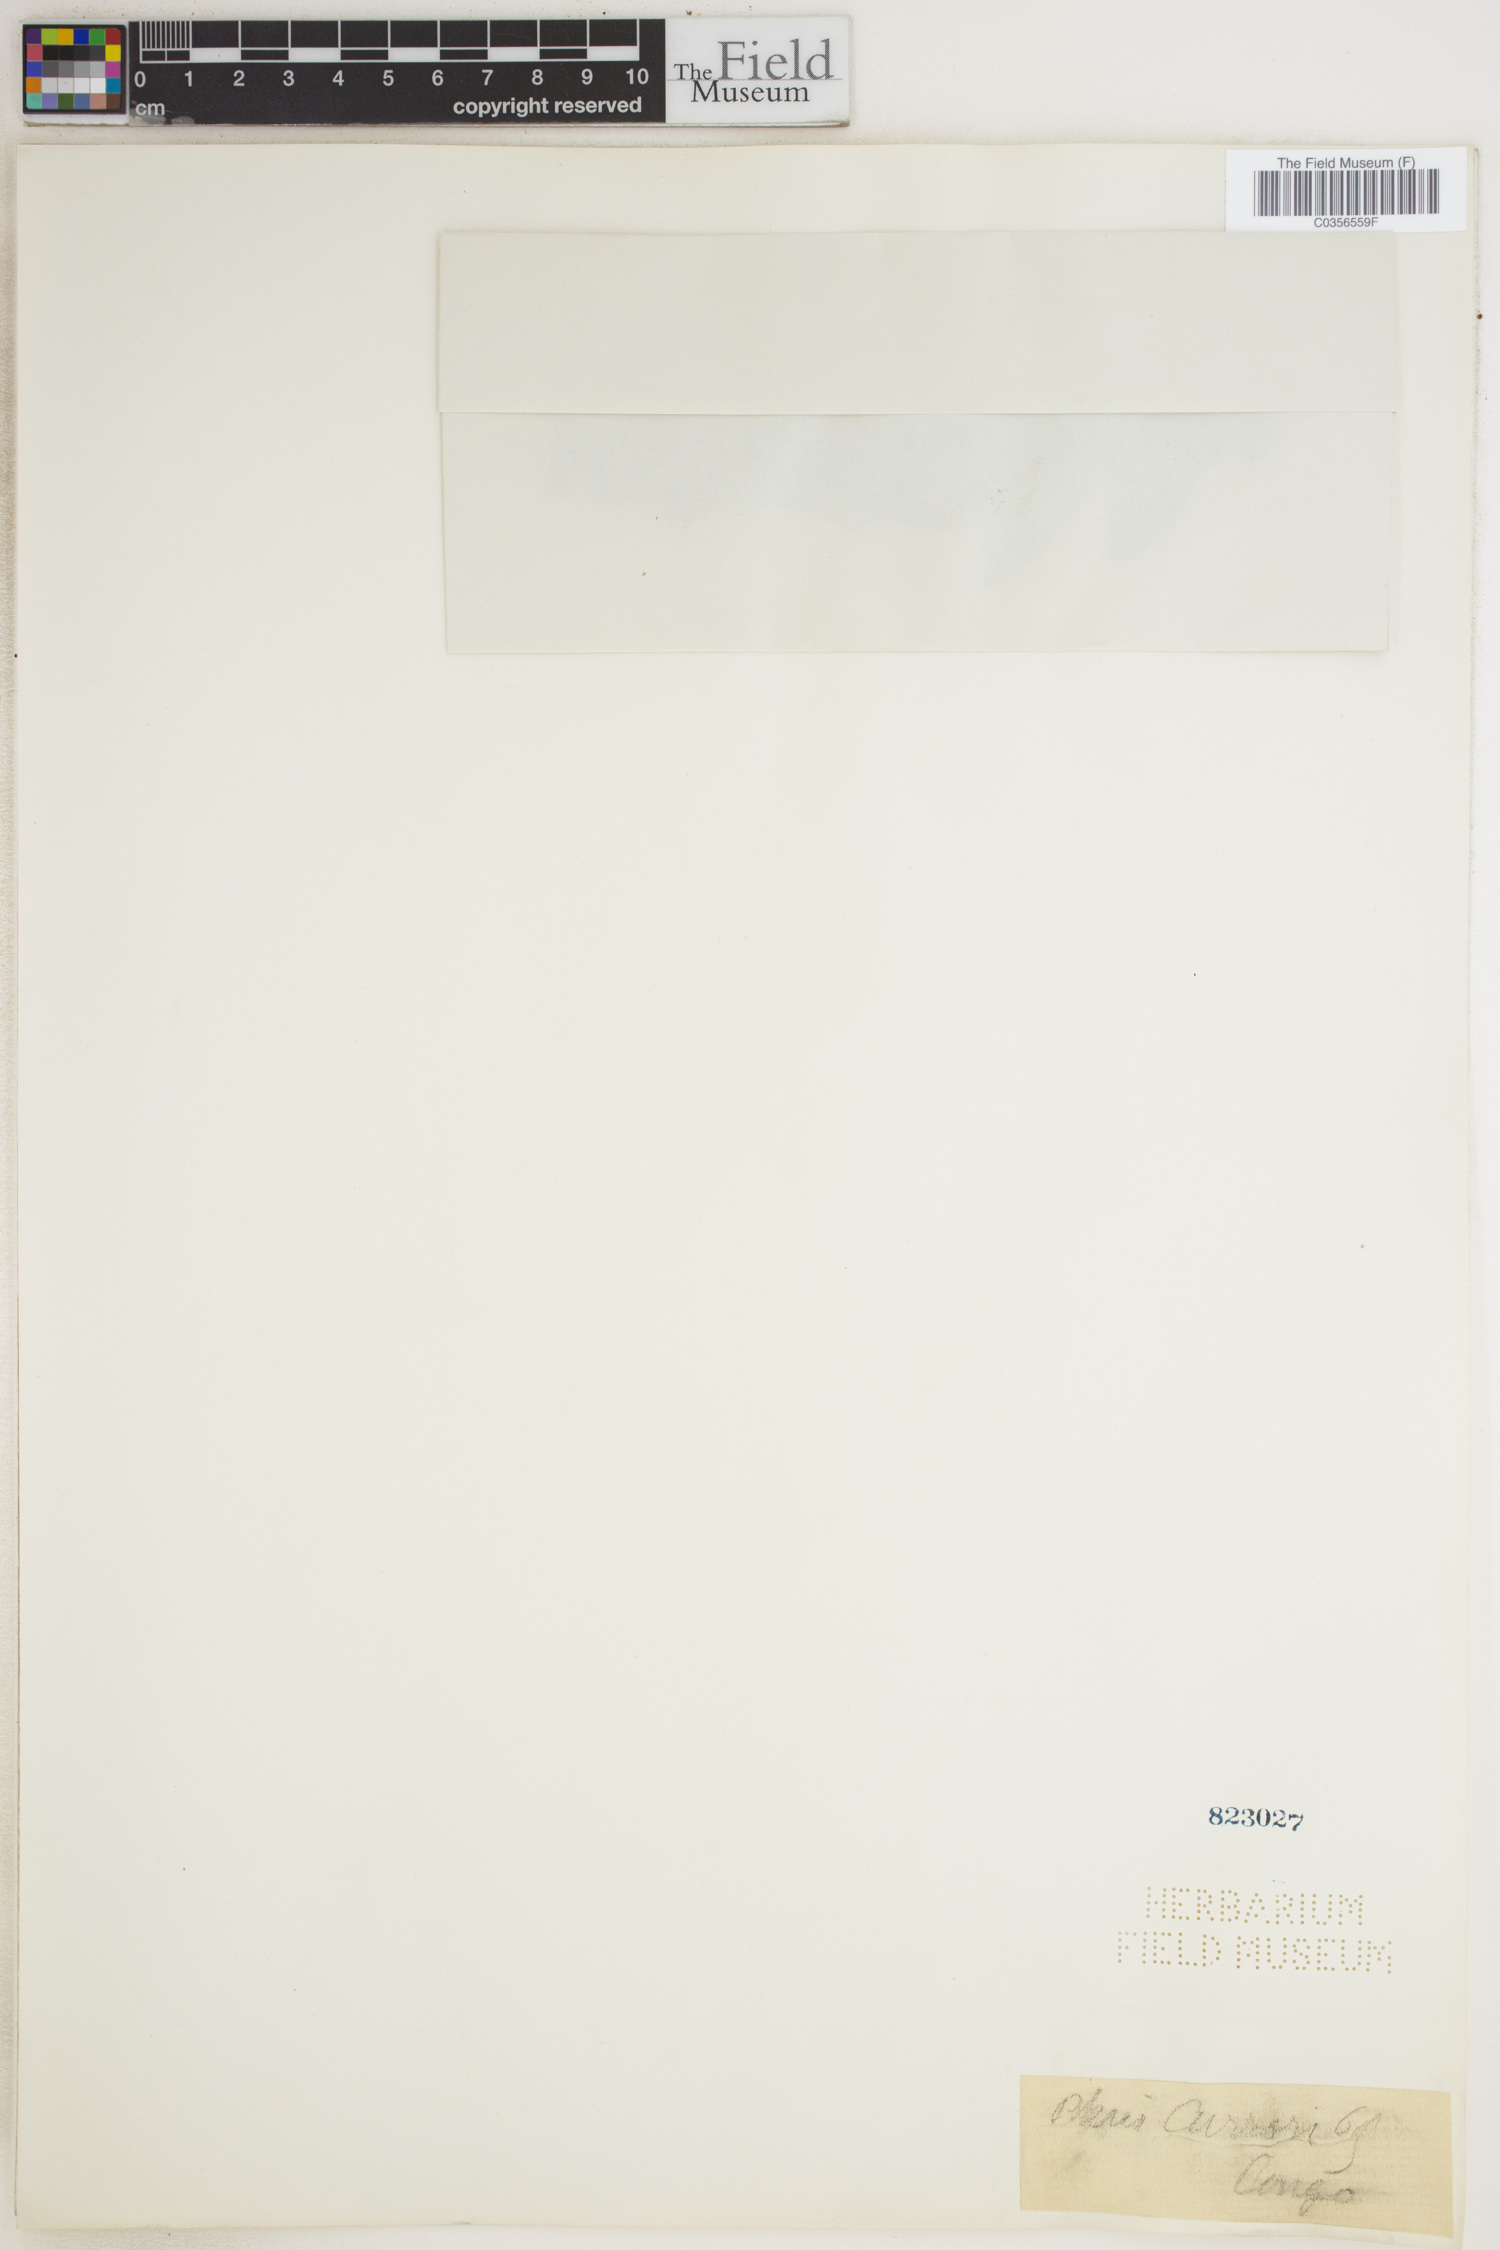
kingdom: Plantae
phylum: Tracheophyta
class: Polypodiopsida
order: Polypodiales
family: Dennstaedtiaceae
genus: Blotiella
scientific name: Blotiella currorii
